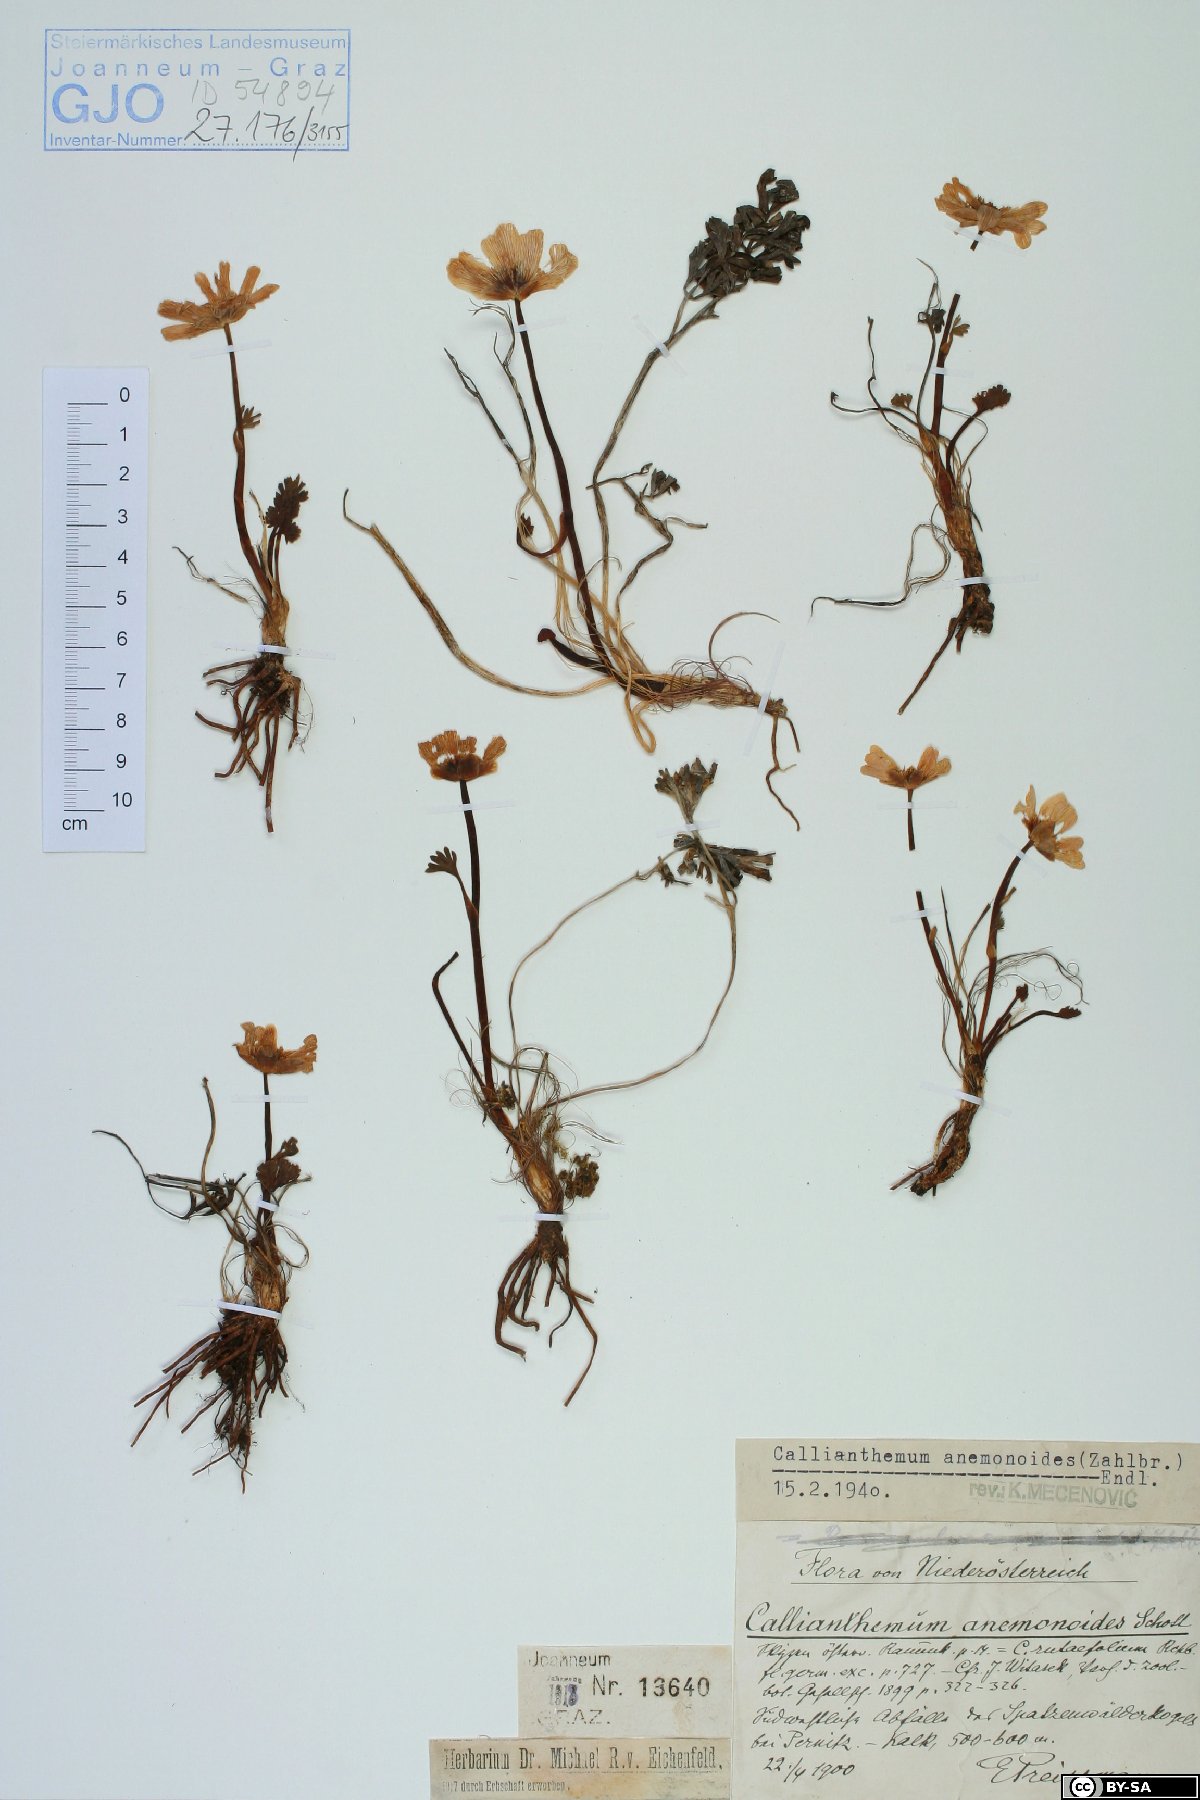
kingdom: Plantae
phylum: Tracheophyta
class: Magnoliopsida
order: Ranunculales
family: Ranunculaceae
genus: Callianthemum
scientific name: Callianthemum anemonoides
